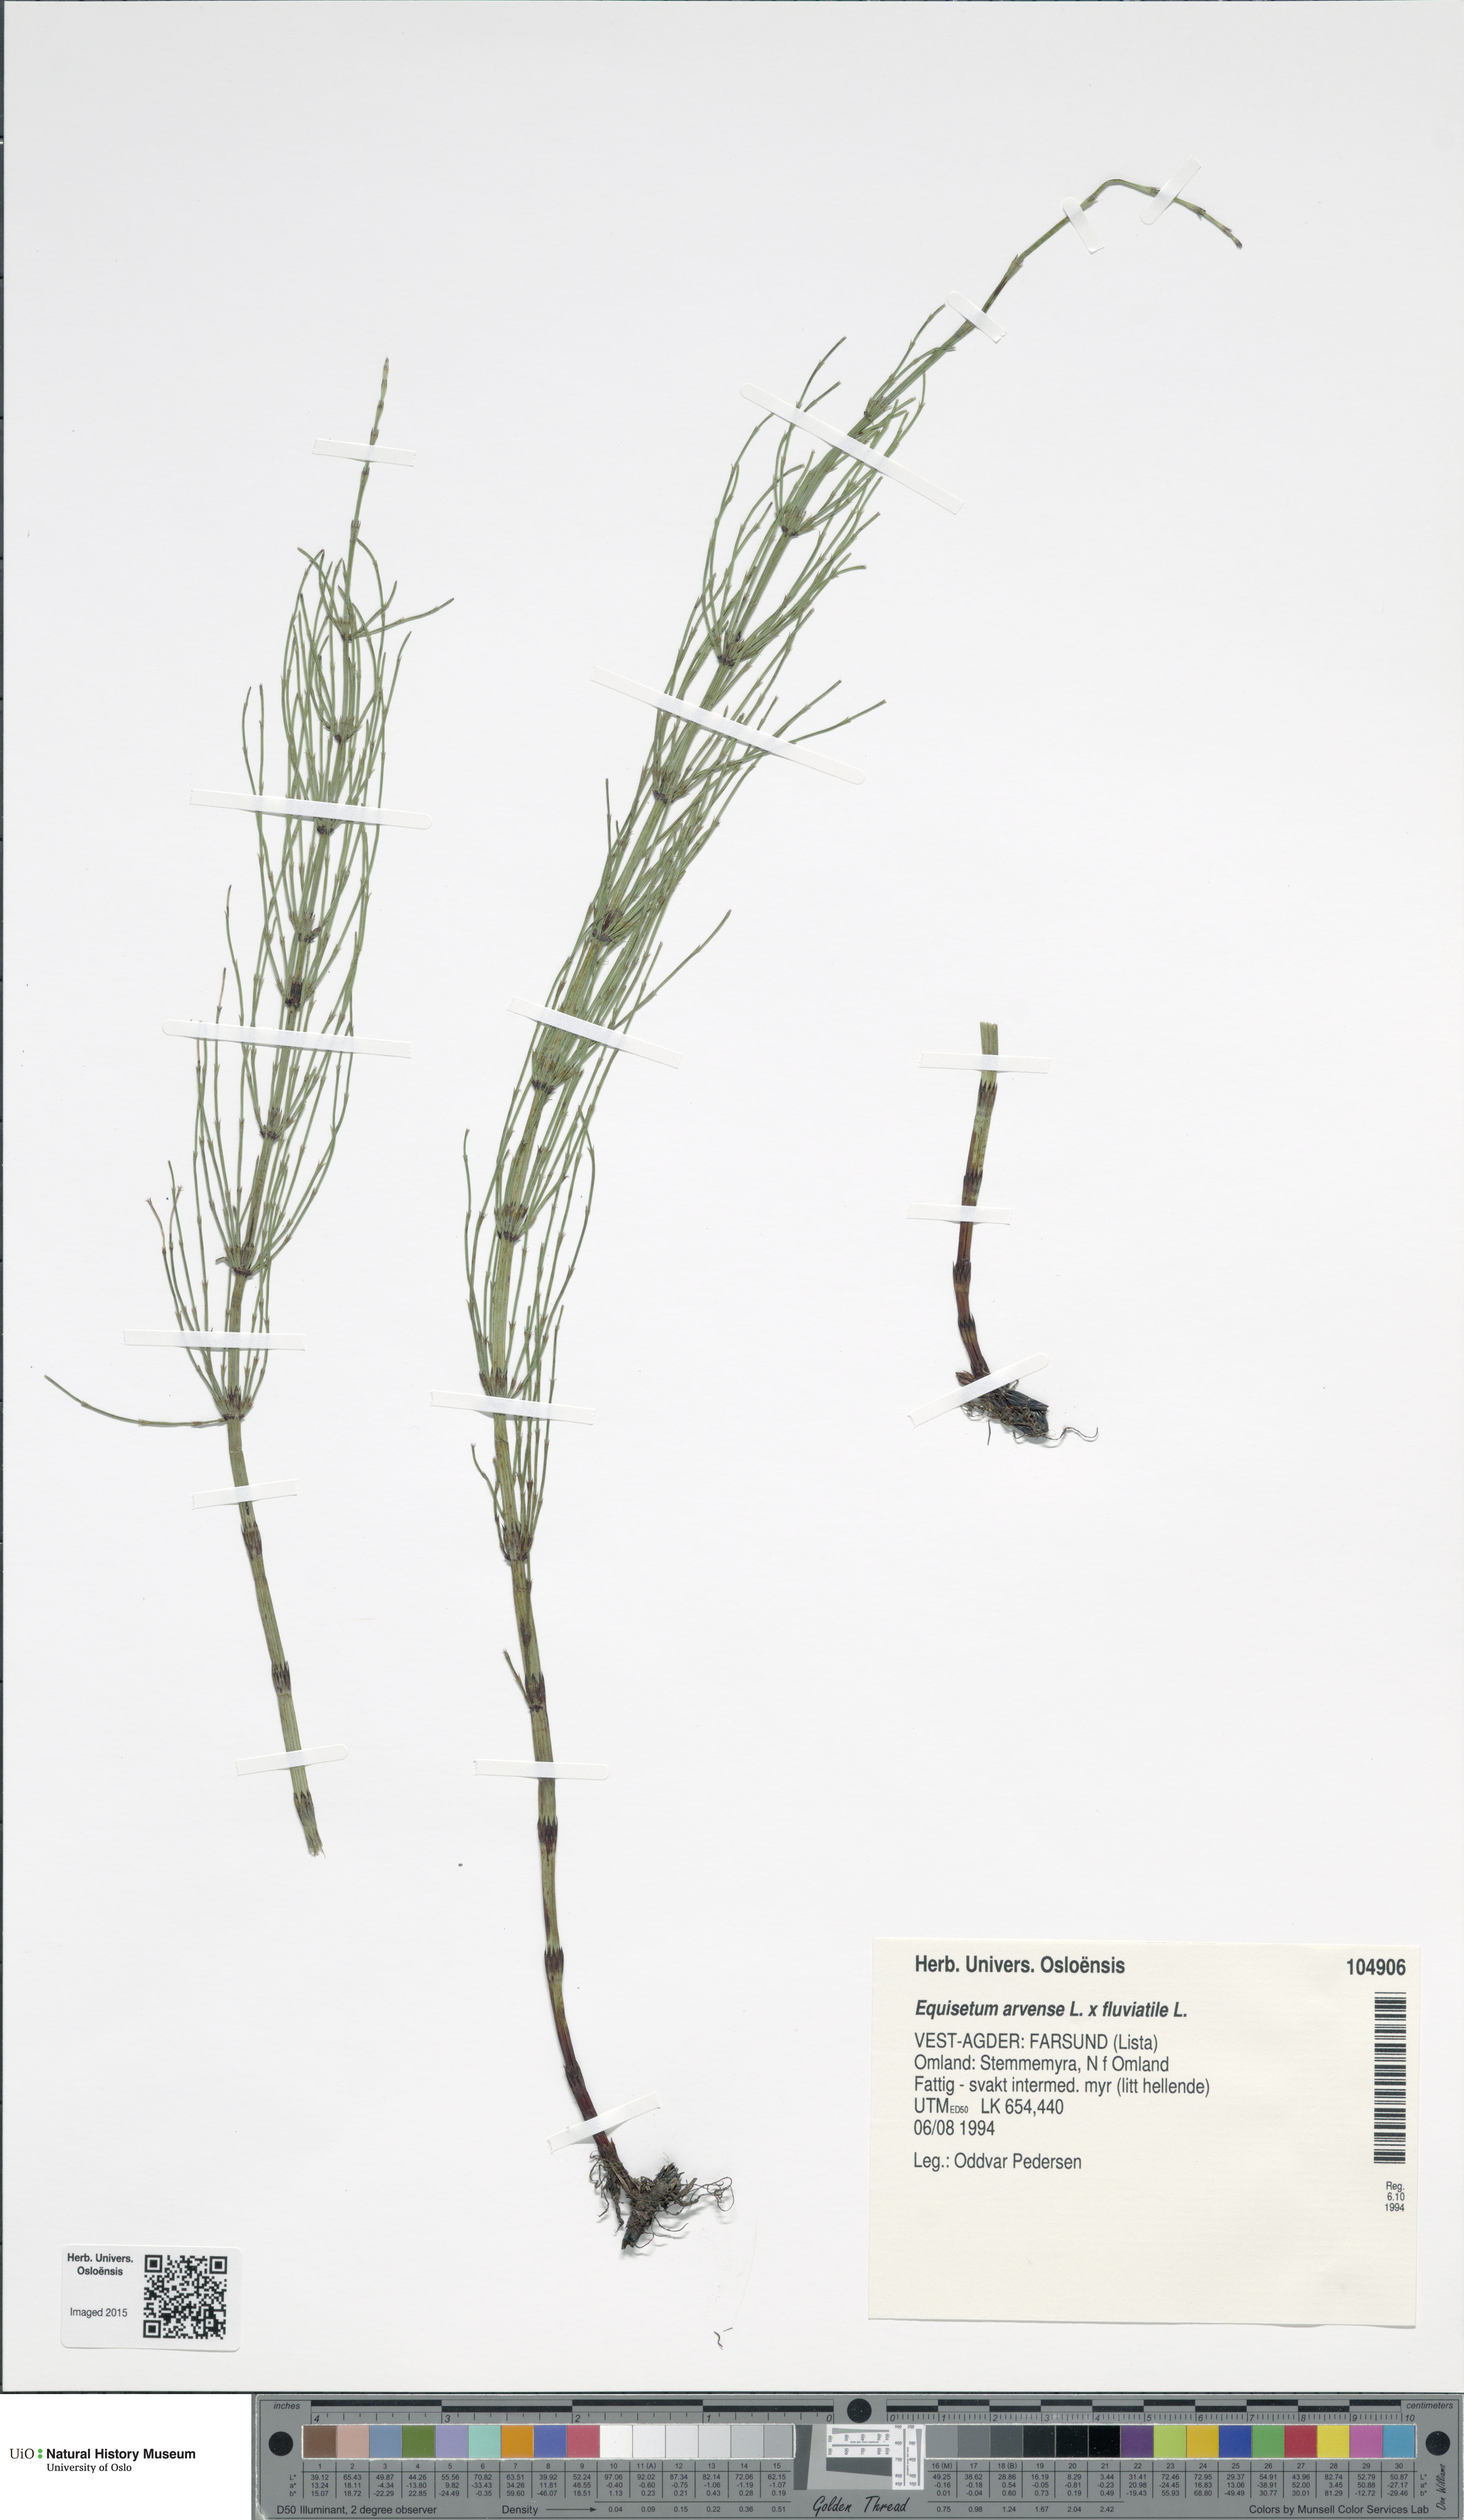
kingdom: Plantae
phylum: Tracheophyta
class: Polypodiopsida
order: Equisetales
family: Equisetaceae
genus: Equisetum
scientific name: Equisetum
